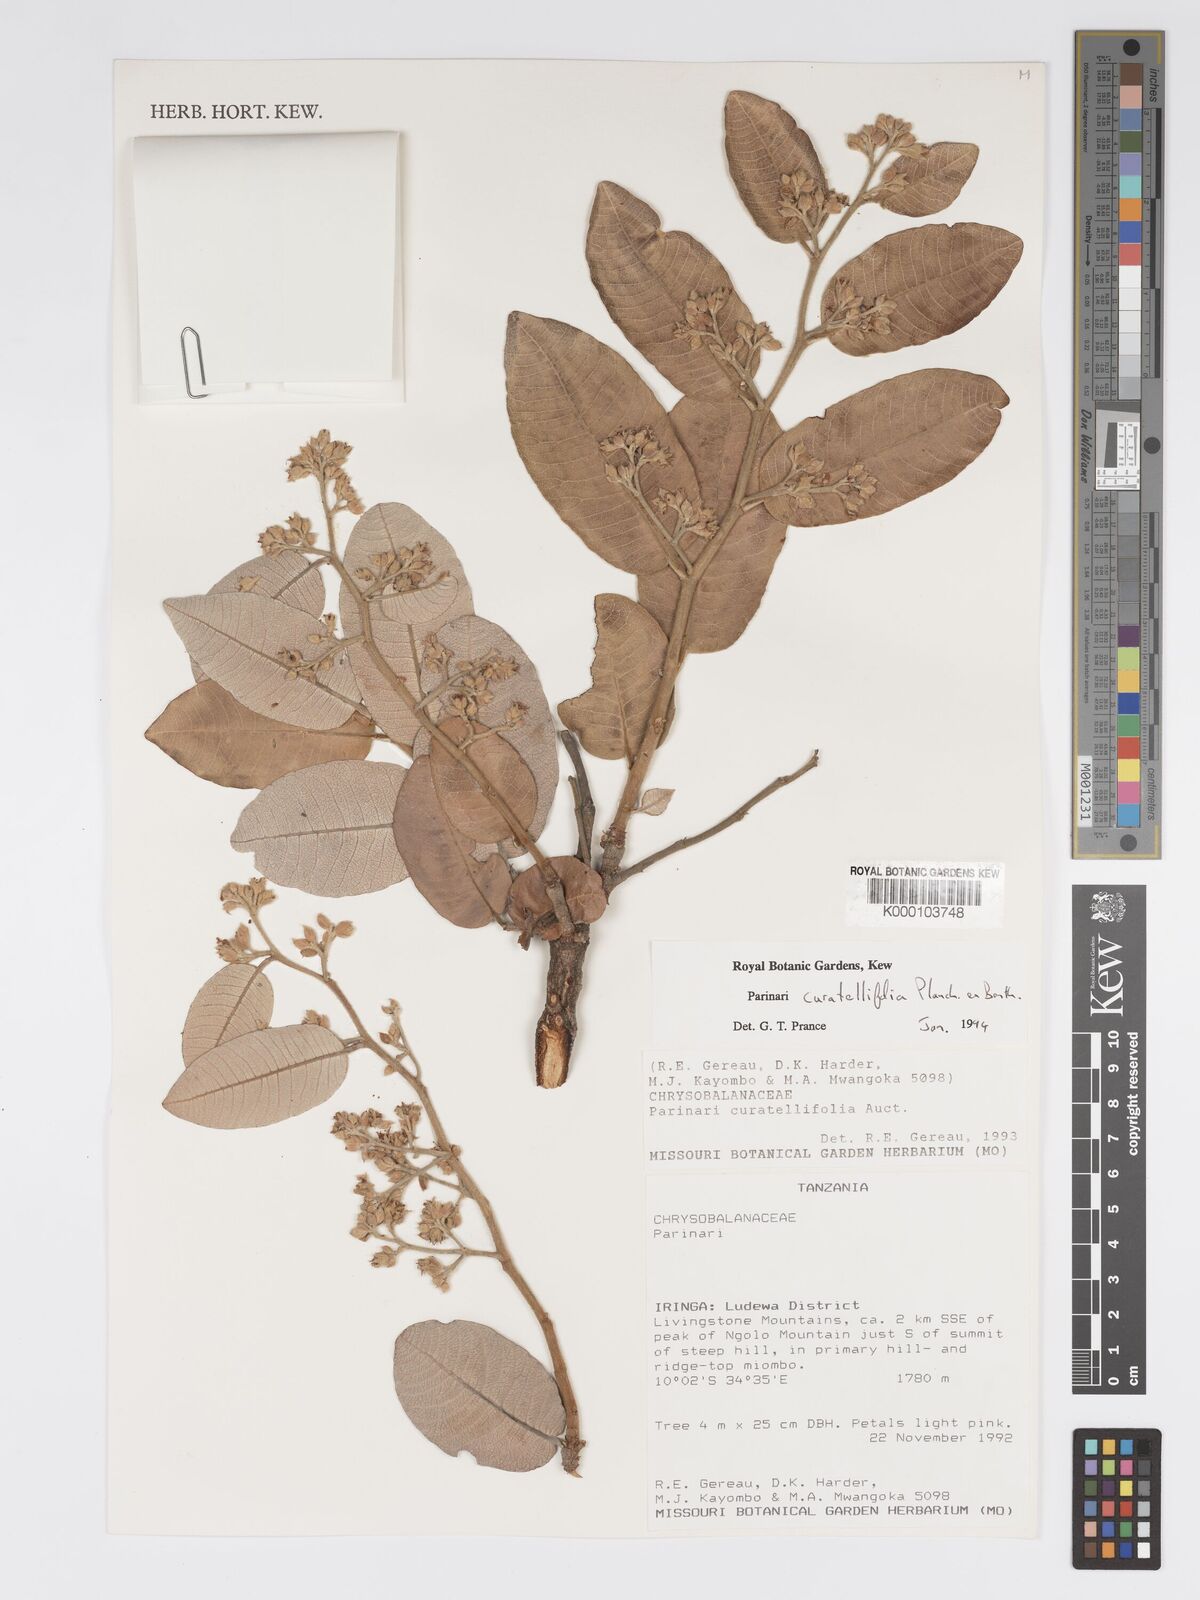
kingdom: Plantae
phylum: Tracheophyta
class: Magnoliopsida
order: Malpighiales
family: Chrysobalanaceae
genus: Parinari
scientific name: Parinari curatellifolia
